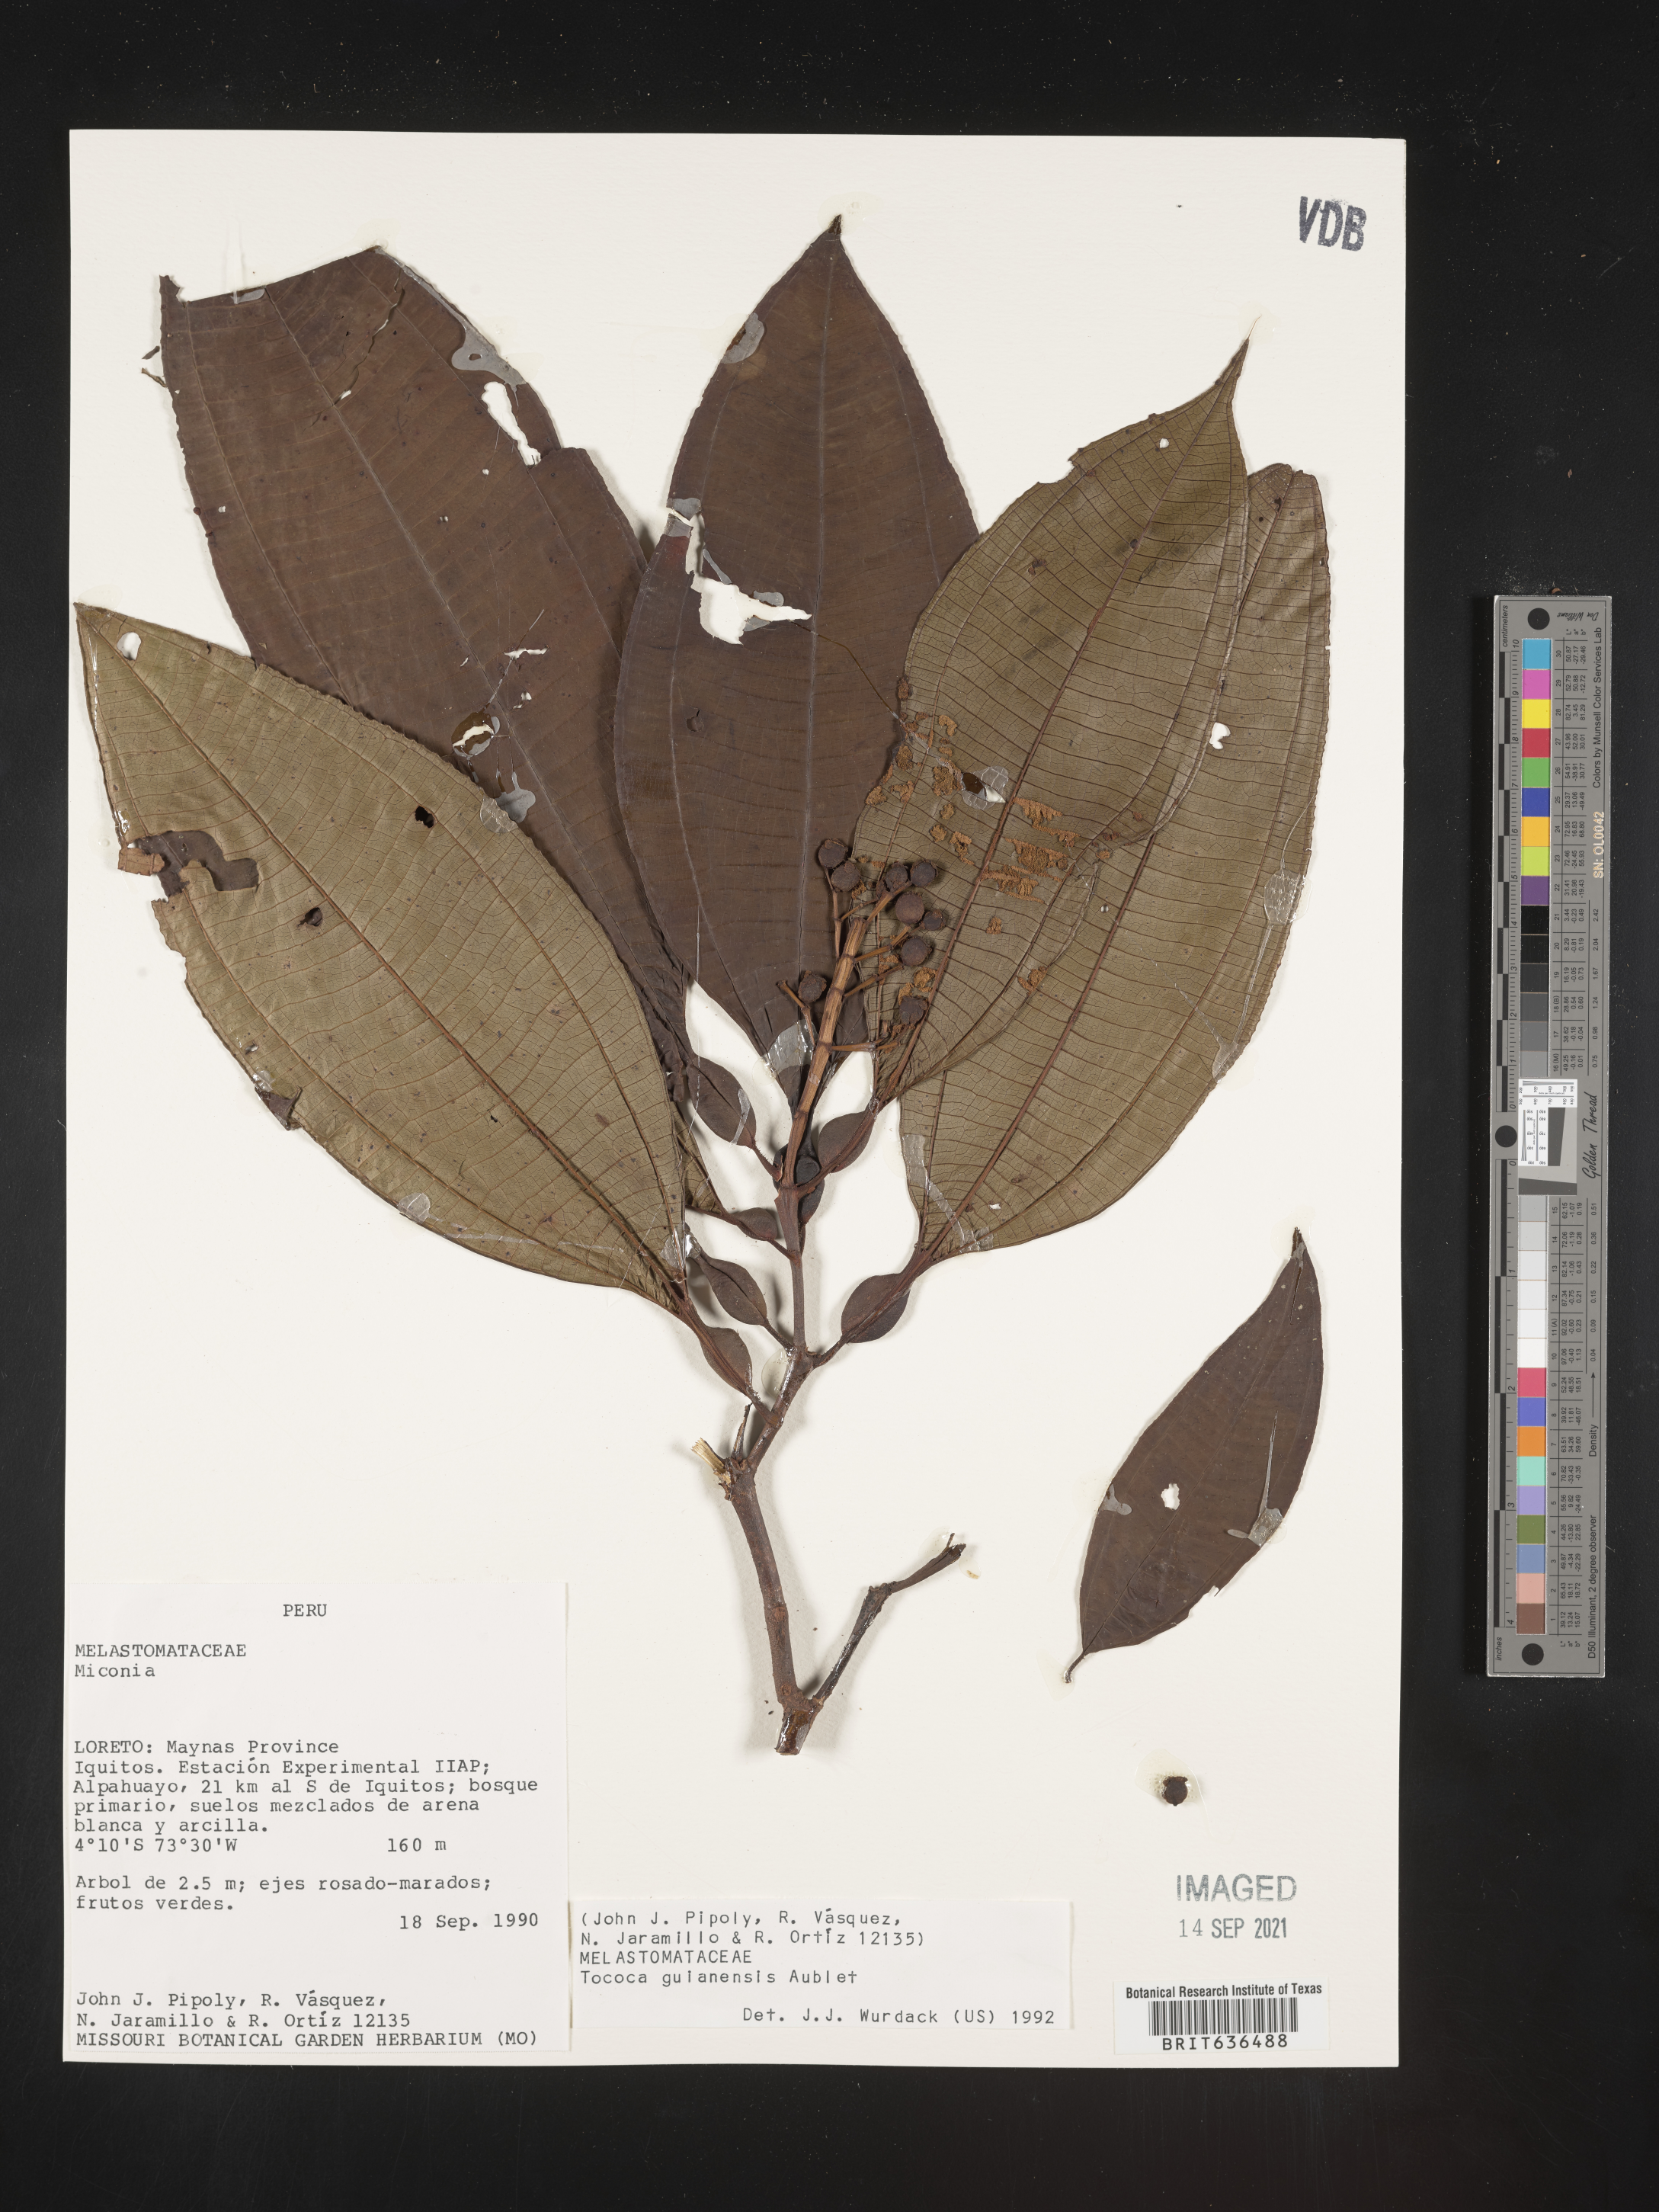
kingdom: Plantae
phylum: Tracheophyta
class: Magnoliopsida
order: Myrtales
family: Melastomataceae
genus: Tibouchina
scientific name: Tibouchina
